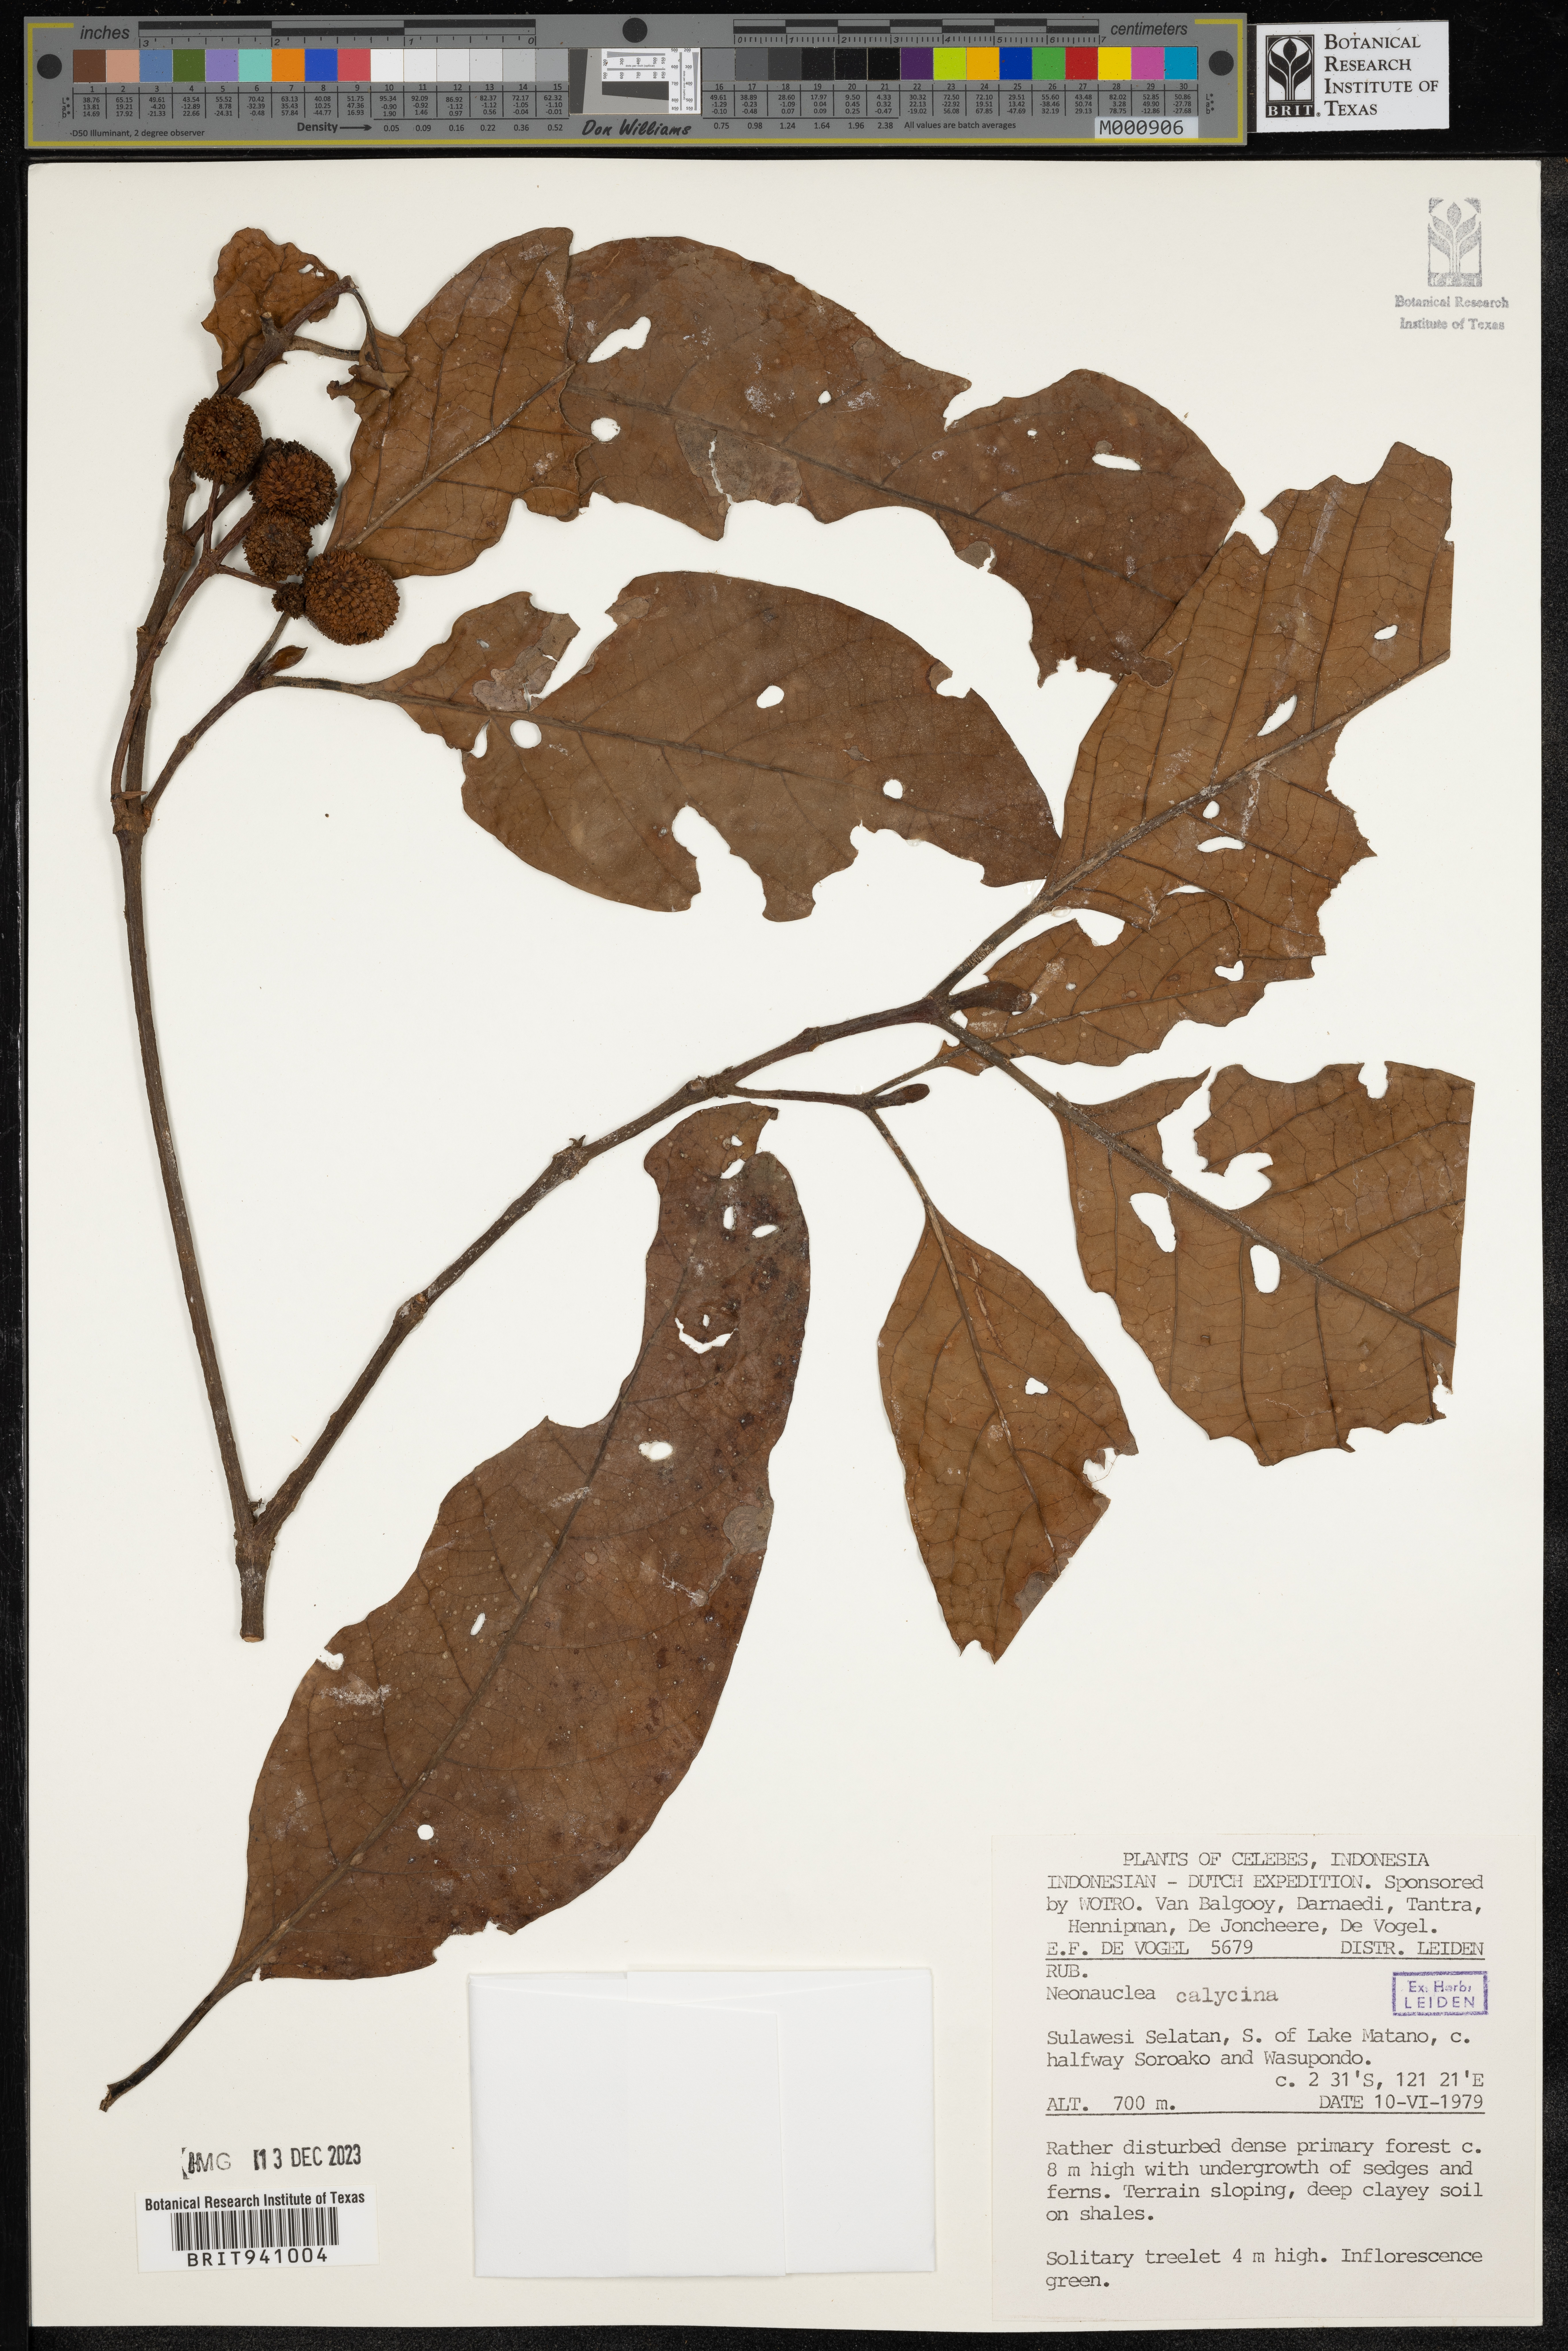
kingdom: Plantae
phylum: Tracheophyta
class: Magnoliopsida
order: Gentianales
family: Rubiaceae
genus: Neonauclea
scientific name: Neonauclea
